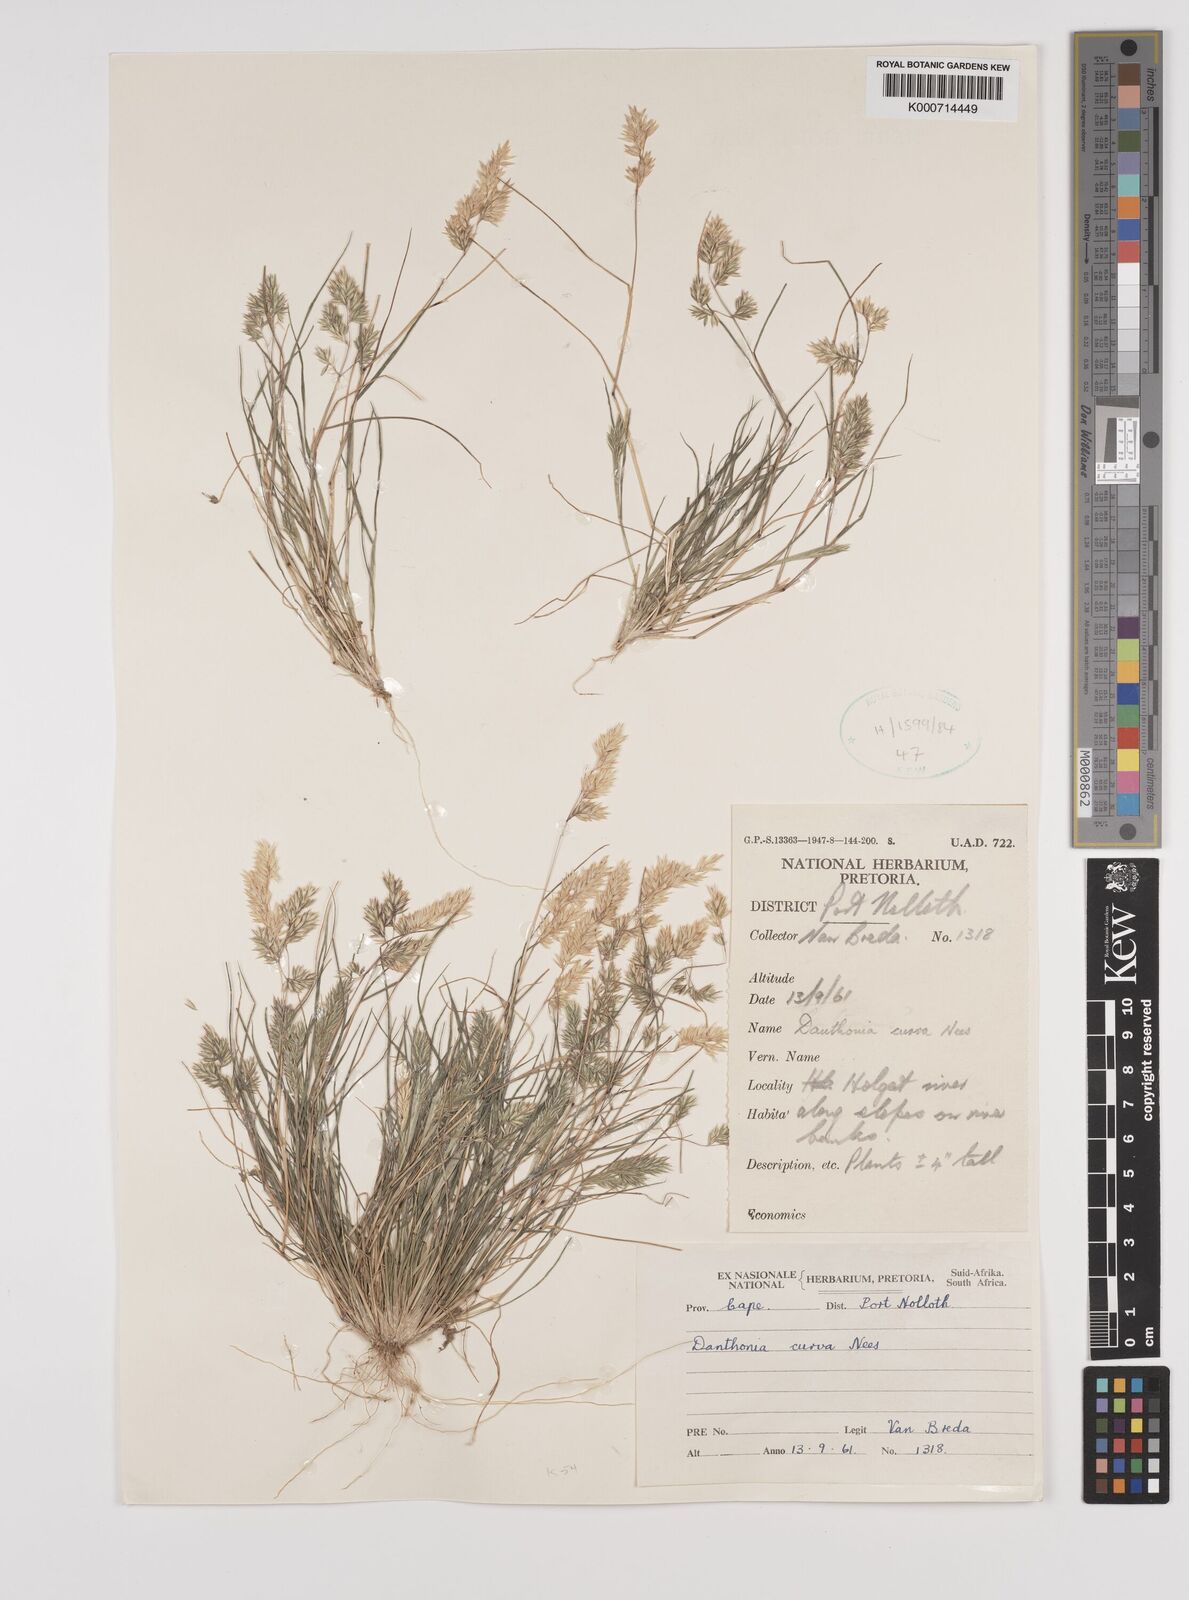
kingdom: Plantae
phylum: Tracheophyta
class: Liliopsida
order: Poales
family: Poaceae
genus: Rytidosperma
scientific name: Rytidosperma
